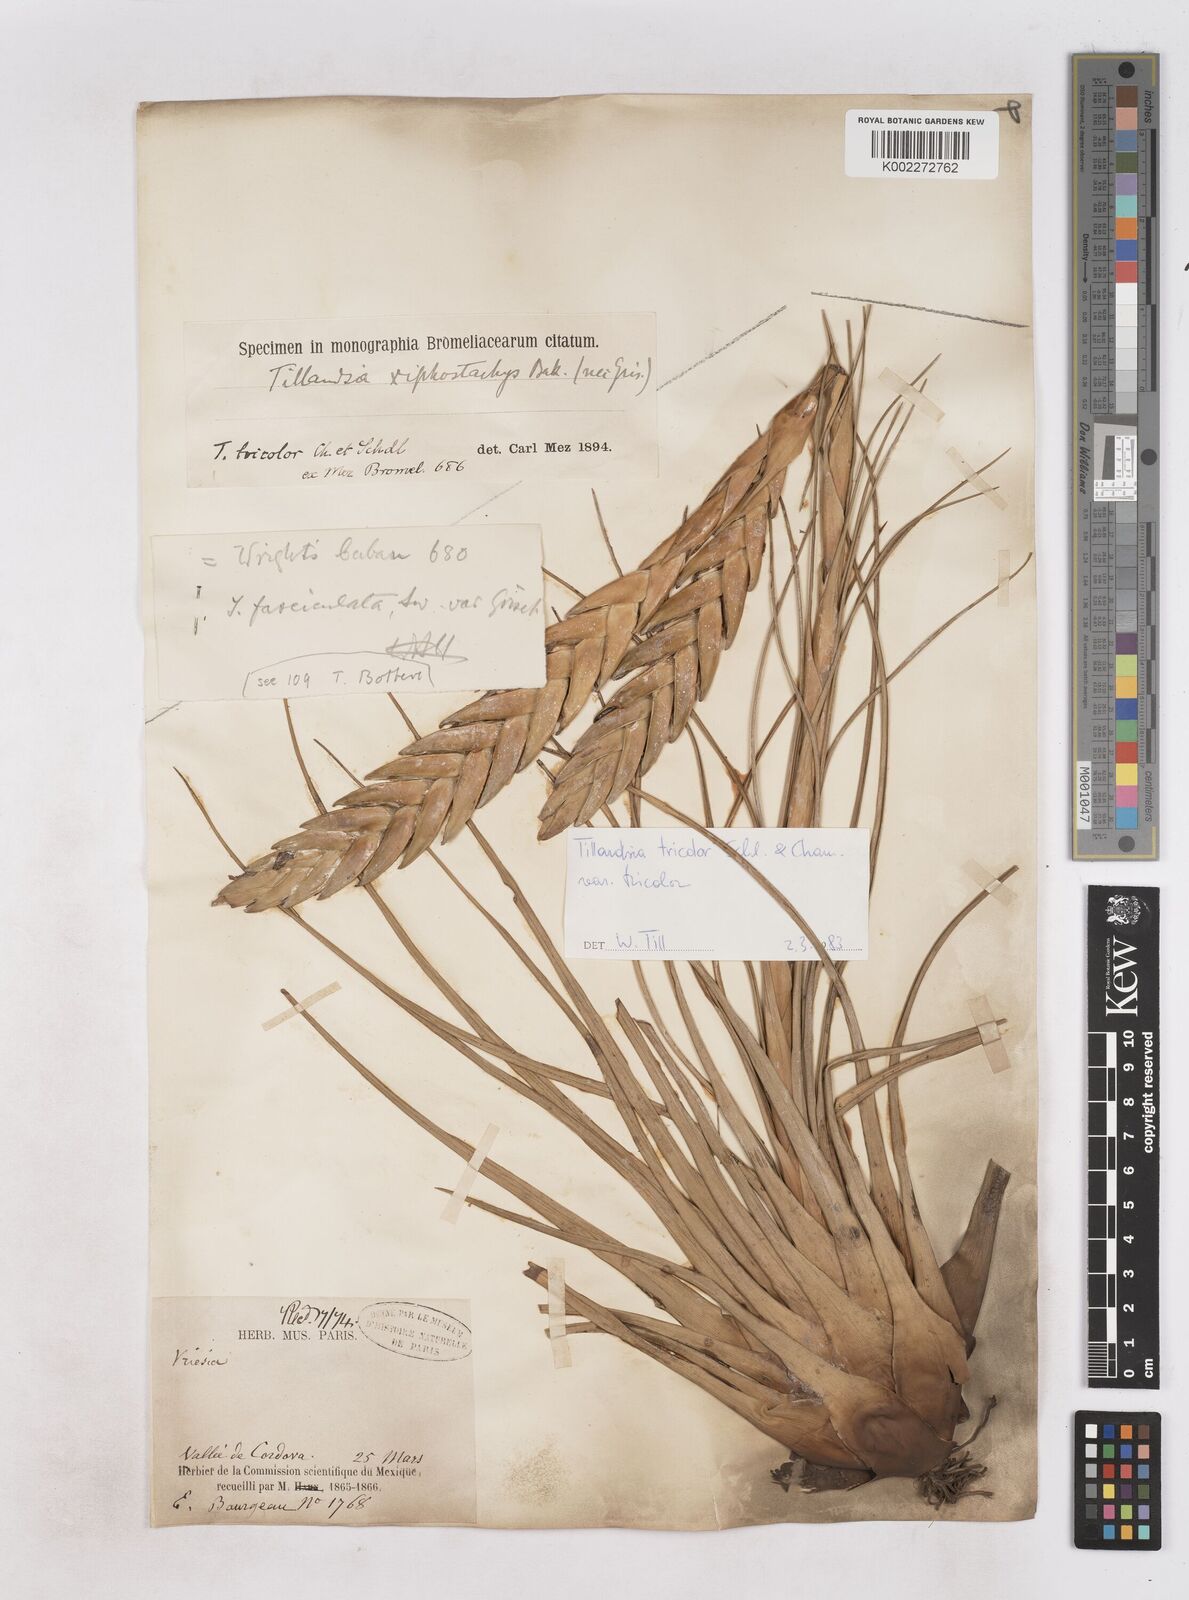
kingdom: Plantae
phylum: Tracheophyta
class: Liliopsida
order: Poales
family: Bromeliaceae
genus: Tillandsia
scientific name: Tillandsia tricolor
